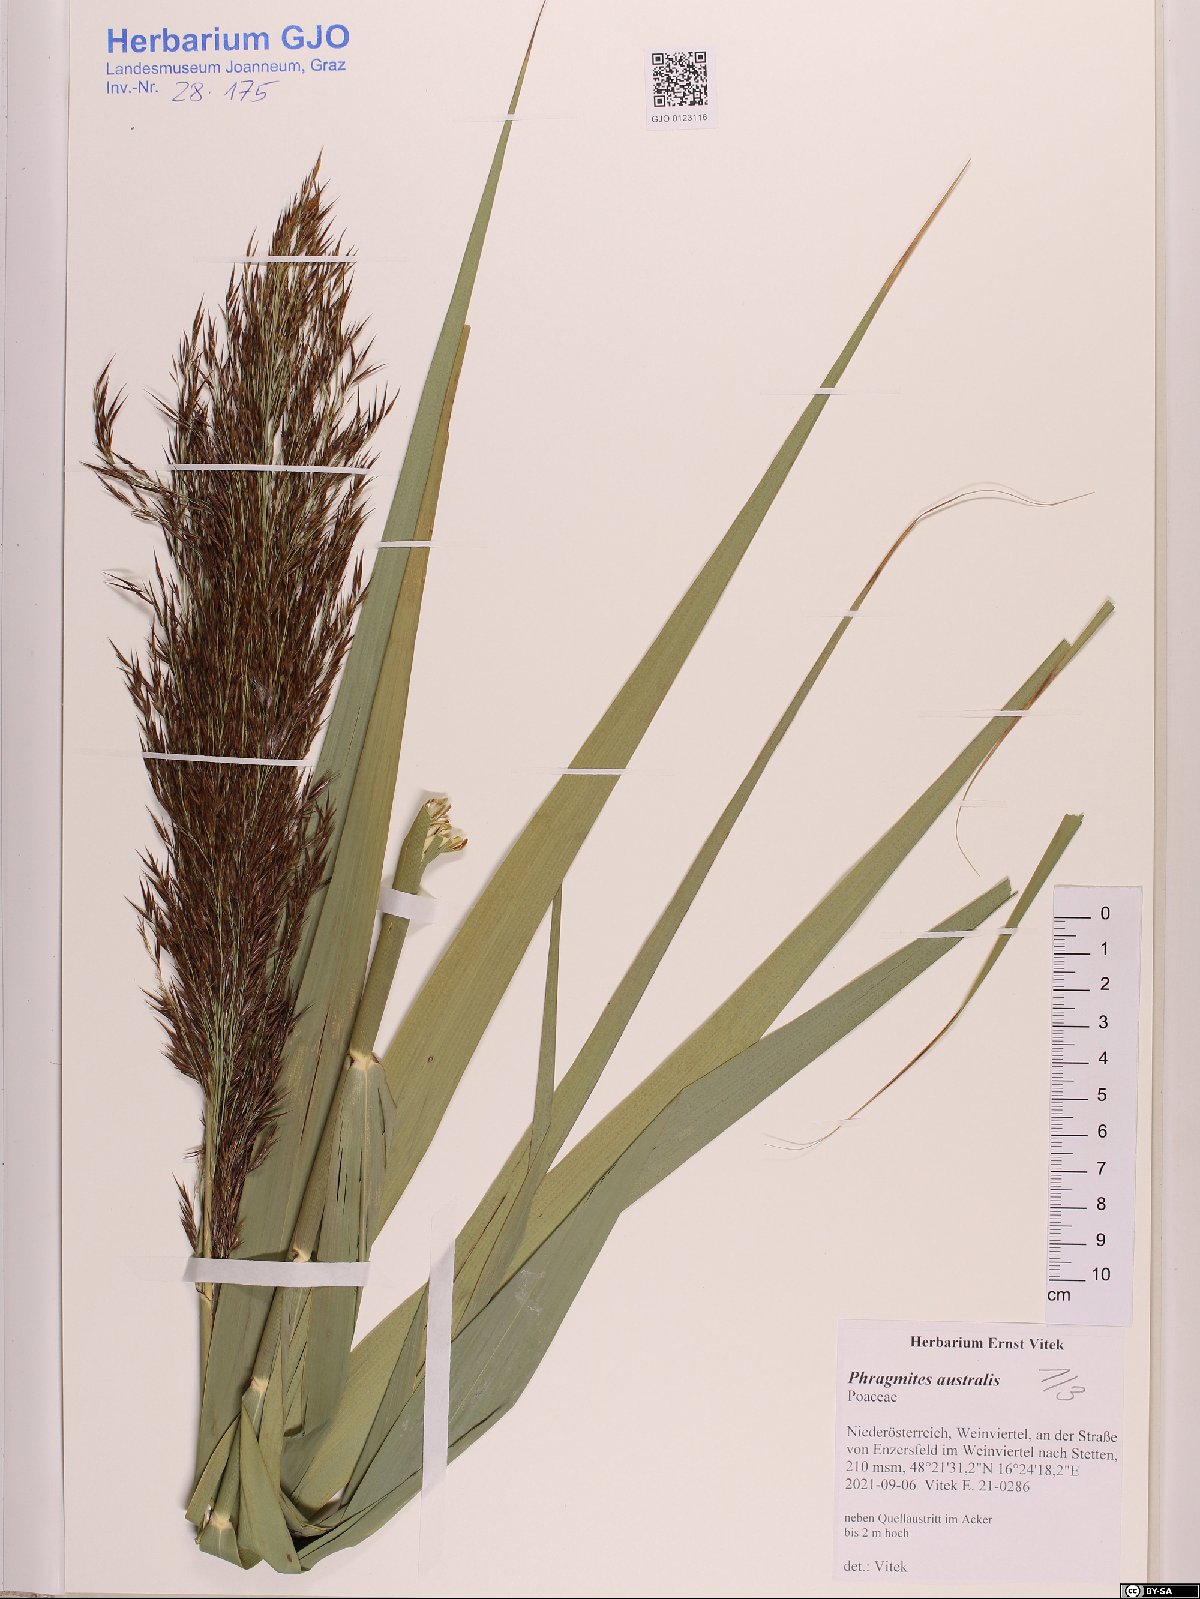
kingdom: Plantae
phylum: Tracheophyta
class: Liliopsida
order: Poales
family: Poaceae
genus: Phragmites
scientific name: Phragmites australis
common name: Common reed
